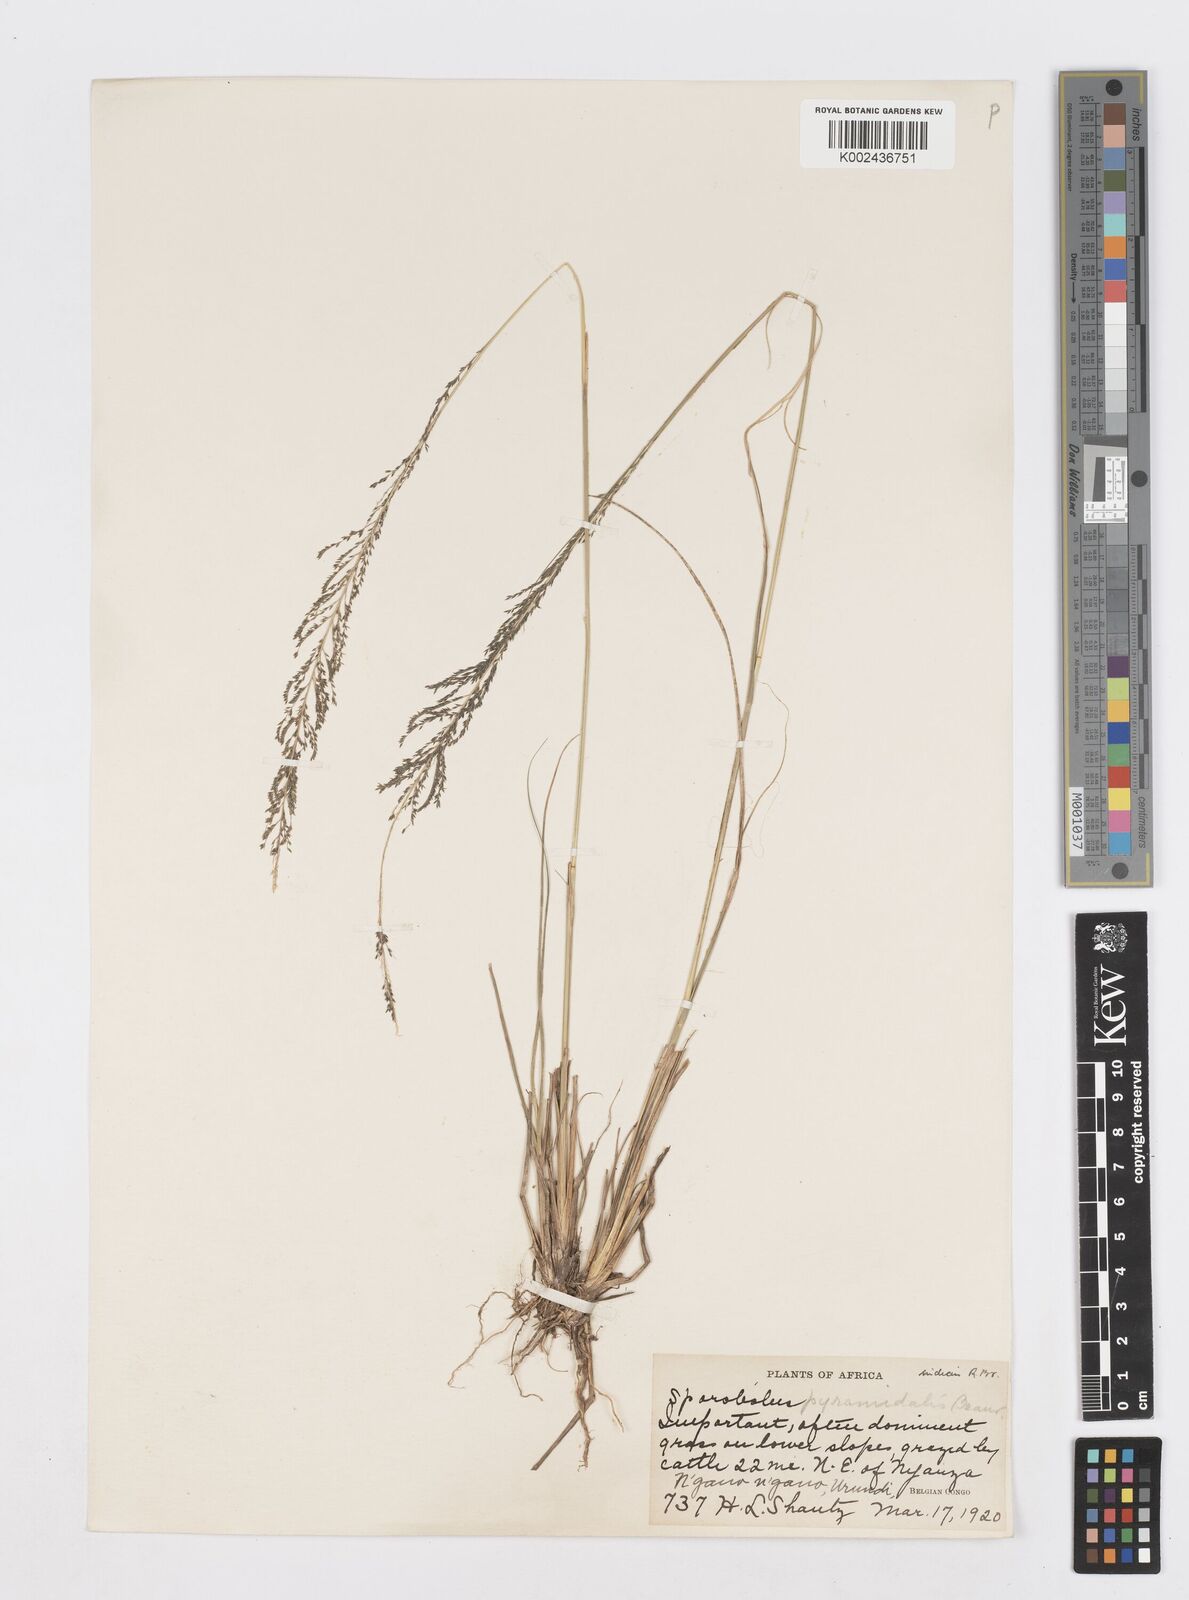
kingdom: Plantae
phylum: Tracheophyta
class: Liliopsida
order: Poales
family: Poaceae
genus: Sporobolus
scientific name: Sporobolus pyramidalis
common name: West indian dropseed
